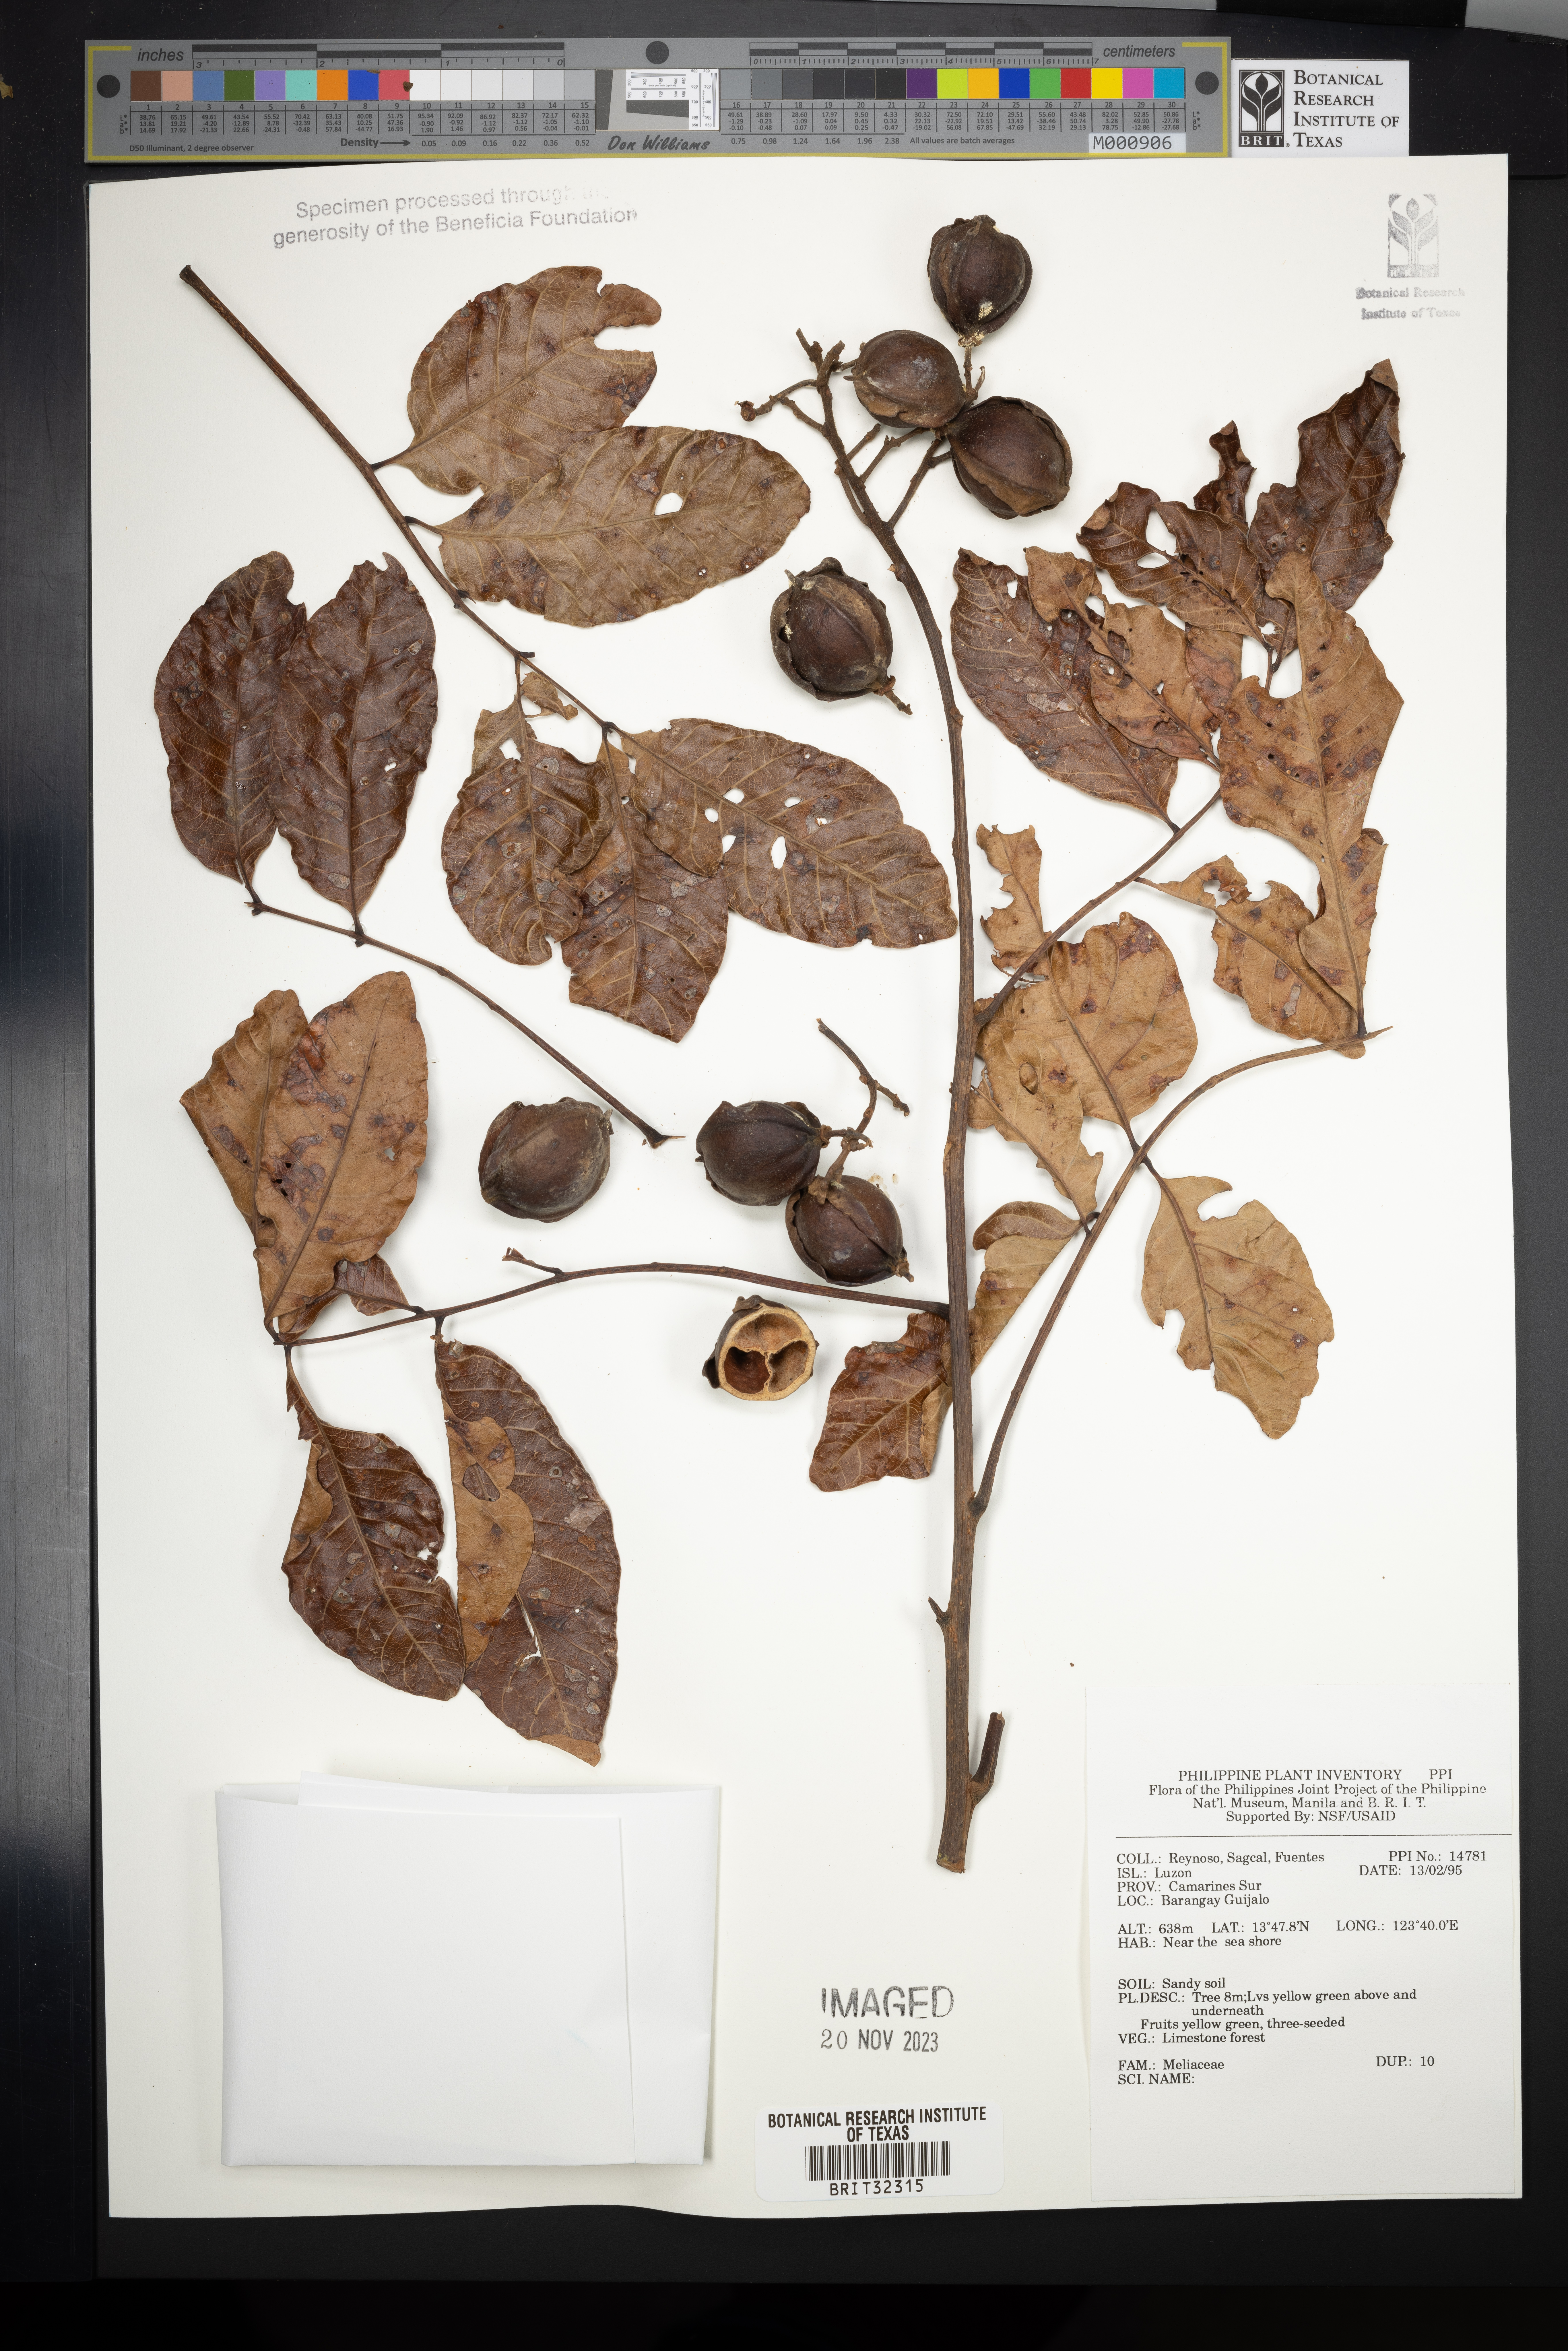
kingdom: Plantae
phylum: Tracheophyta
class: Magnoliopsida
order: Sapindales
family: Meliaceae
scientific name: Meliaceae
